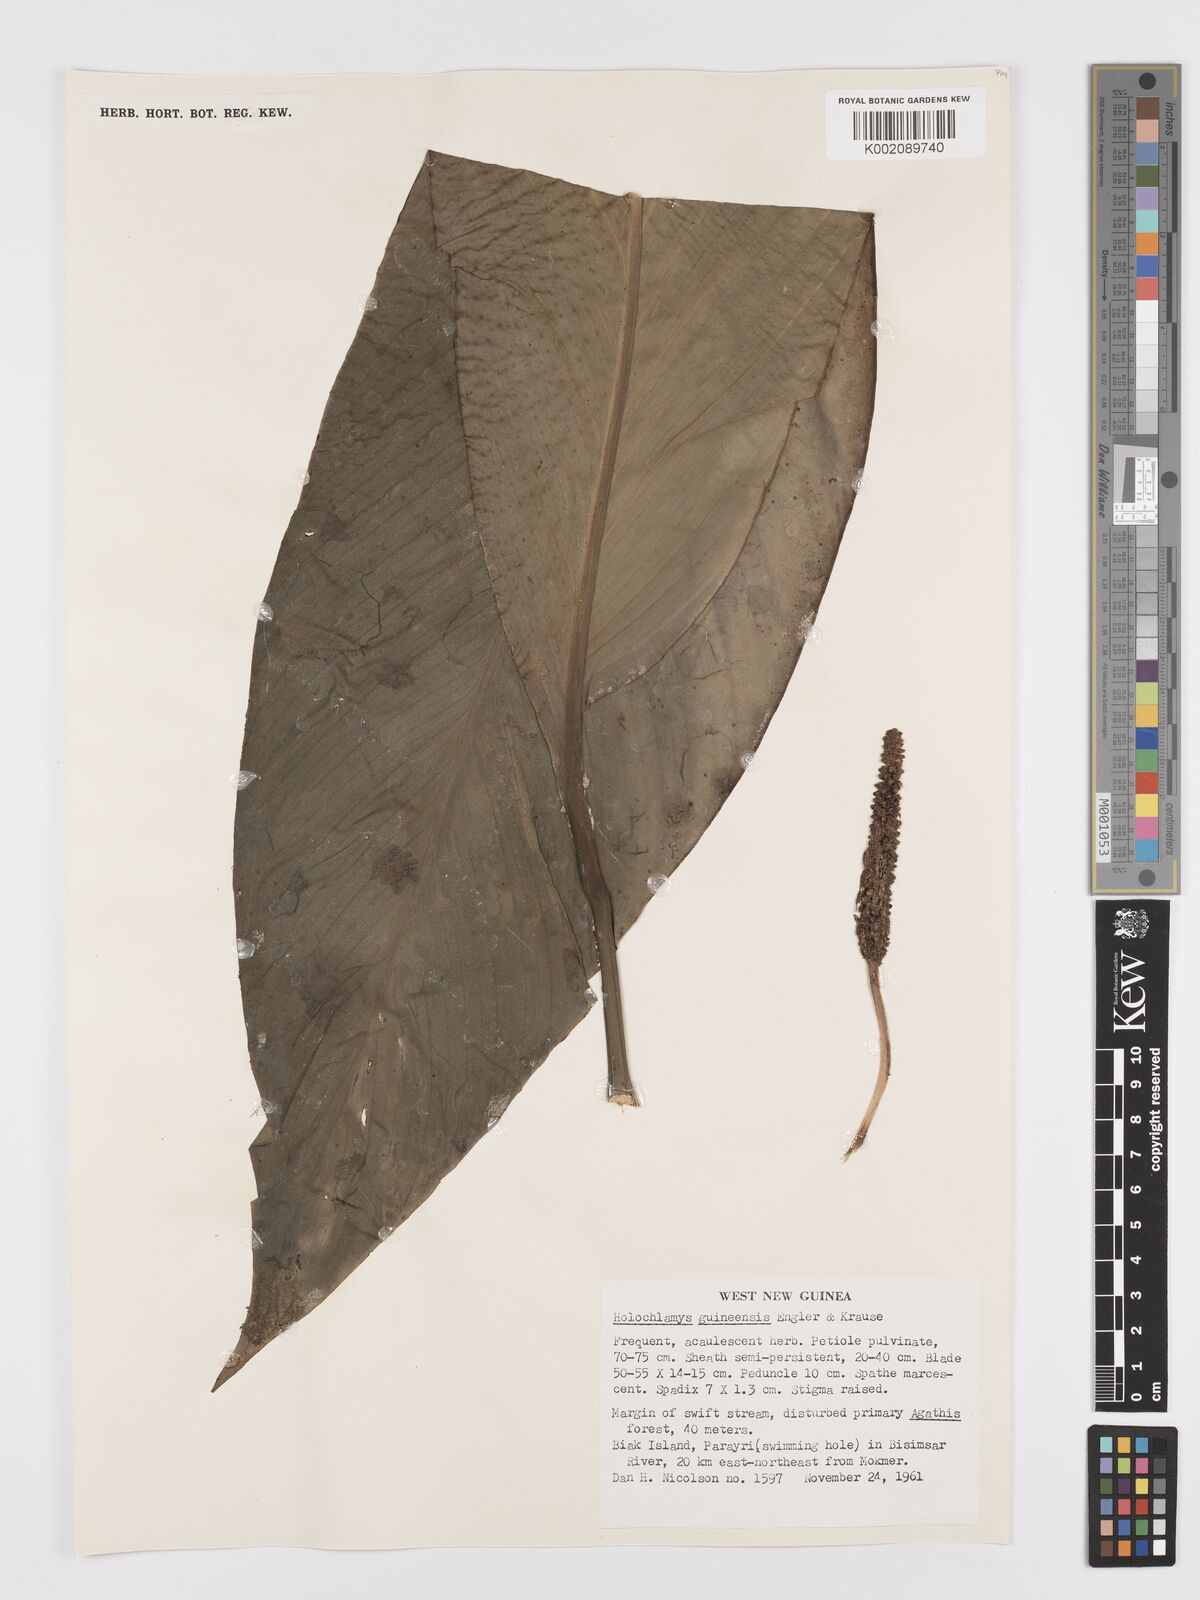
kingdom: Plantae
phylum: Tracheophyta
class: Liliopsida
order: Alismatales
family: Araceae
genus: Holochlamys
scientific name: Holochlamys beccarii
